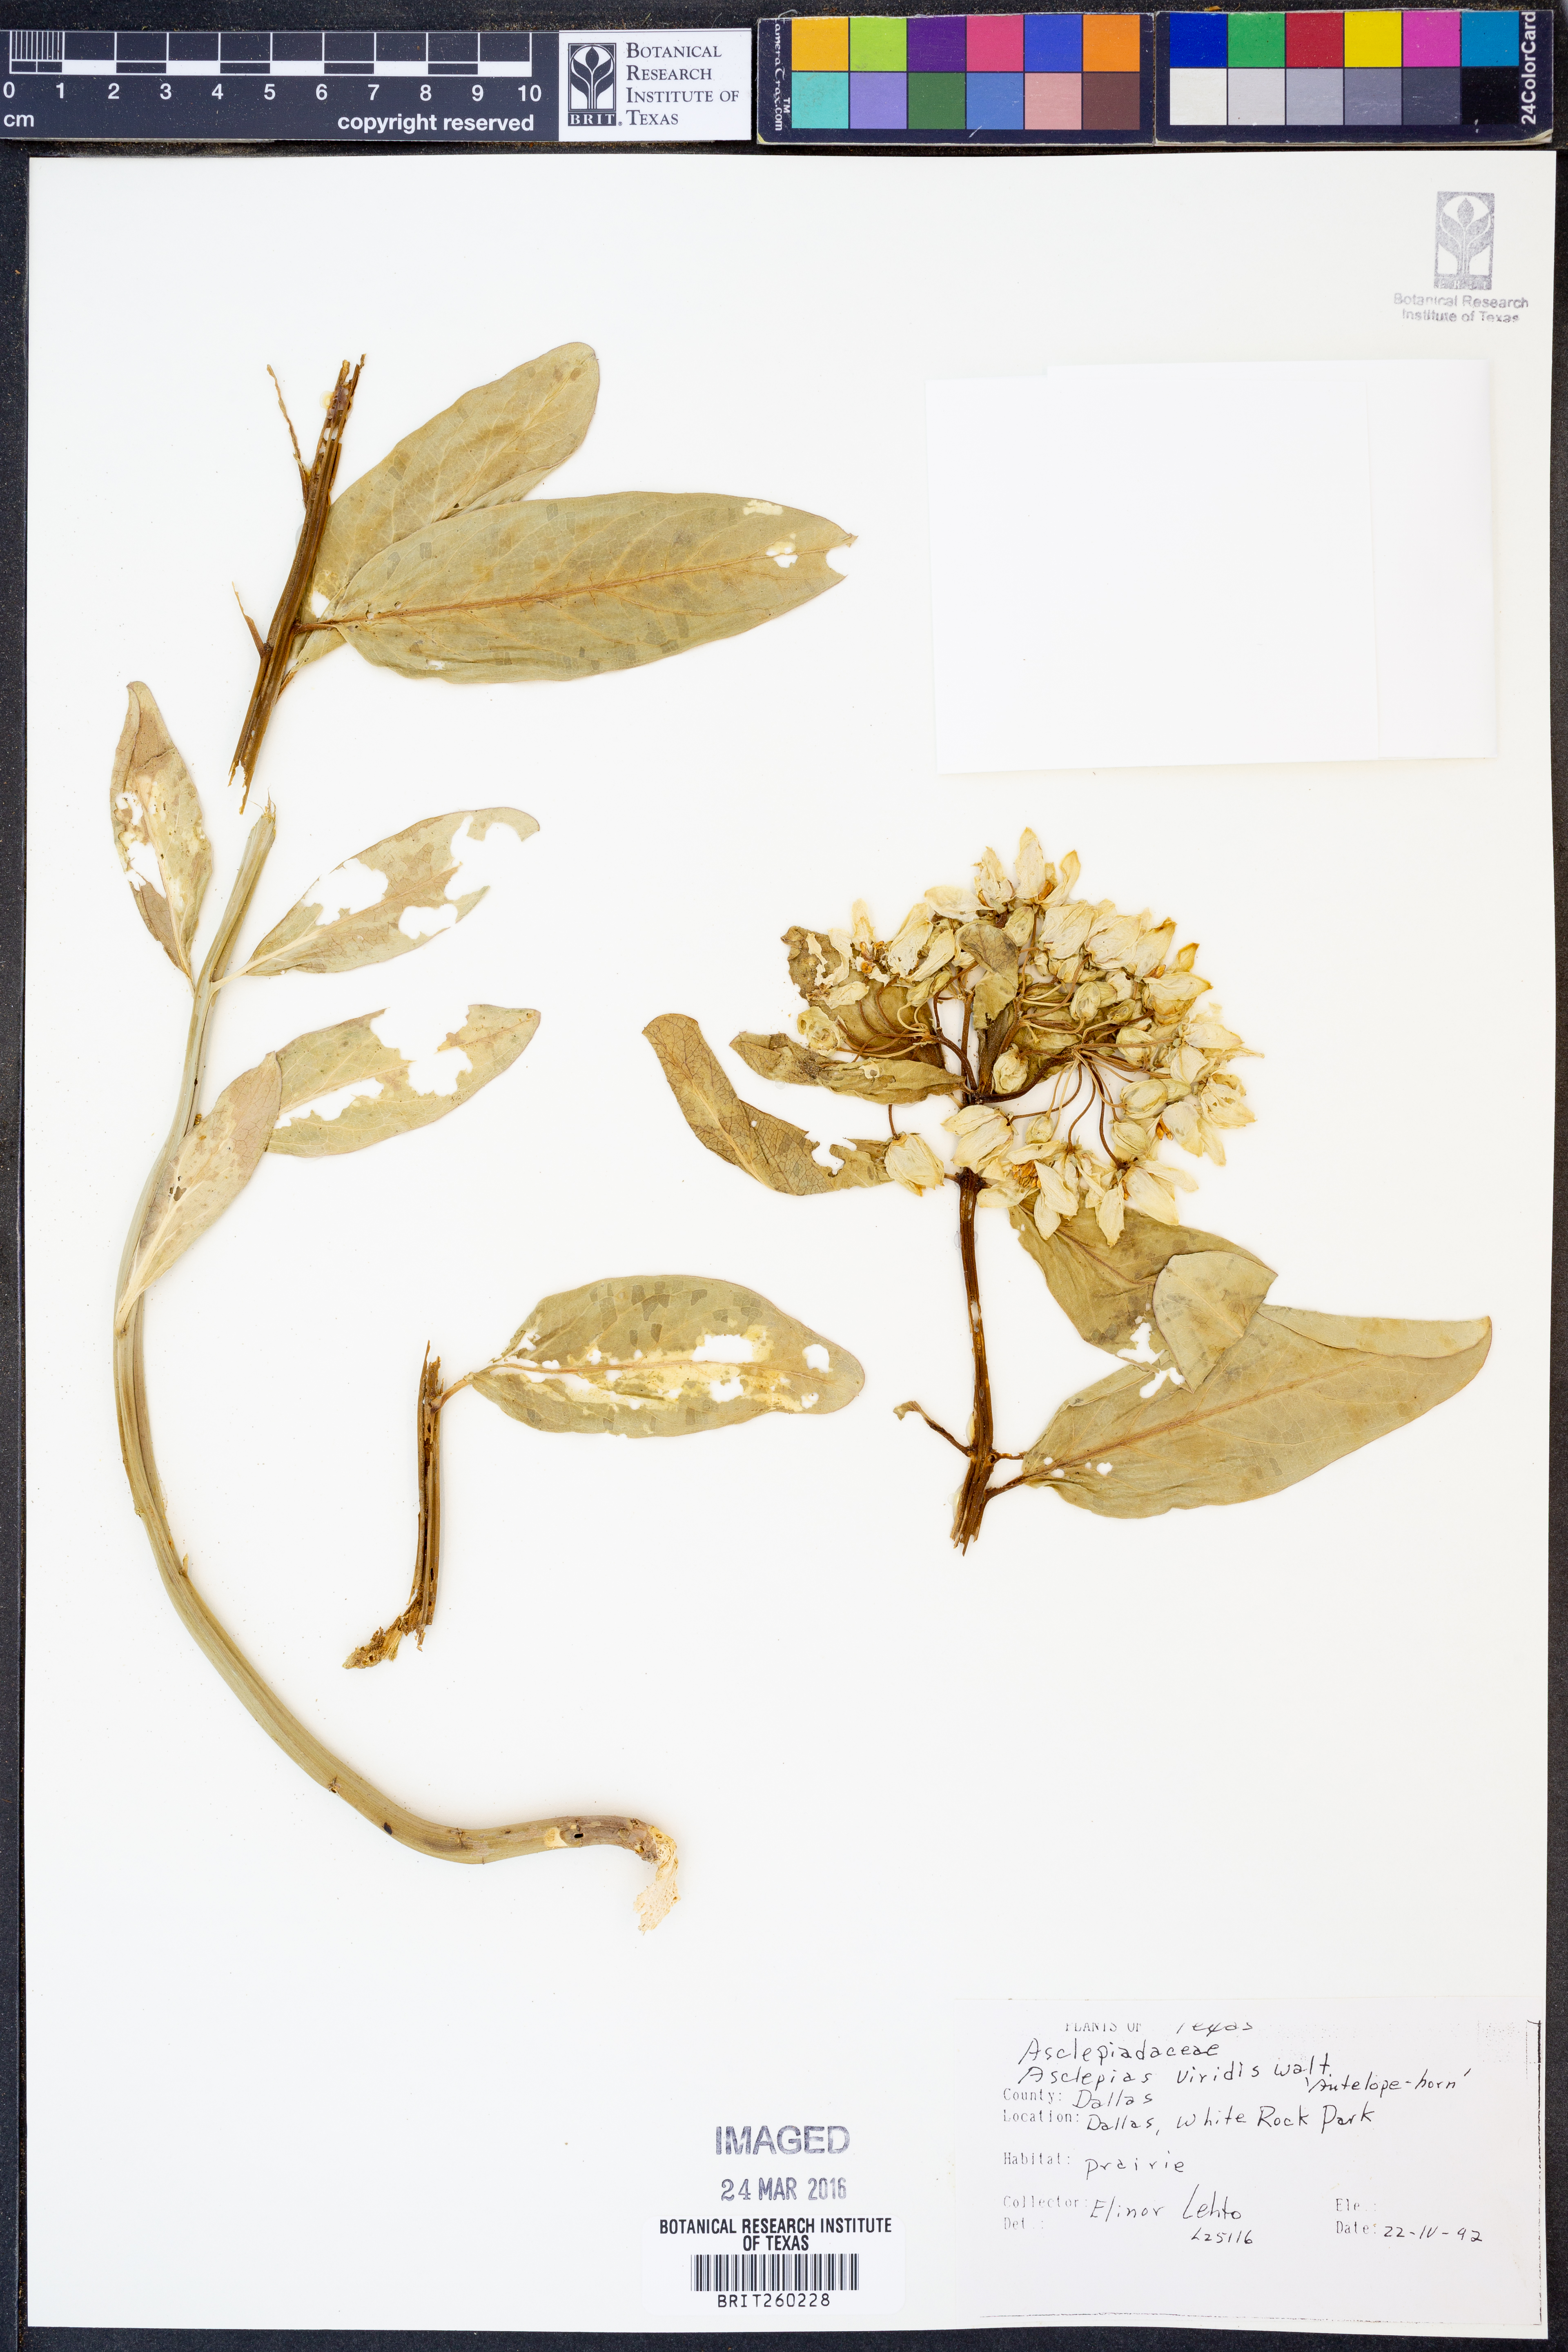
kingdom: Plantae
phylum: Tracheophyta
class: Magnoliopsida
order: Gentianales
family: Apocynaceae
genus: Asclepias
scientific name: Asclepias viridis
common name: Antelope-horns
